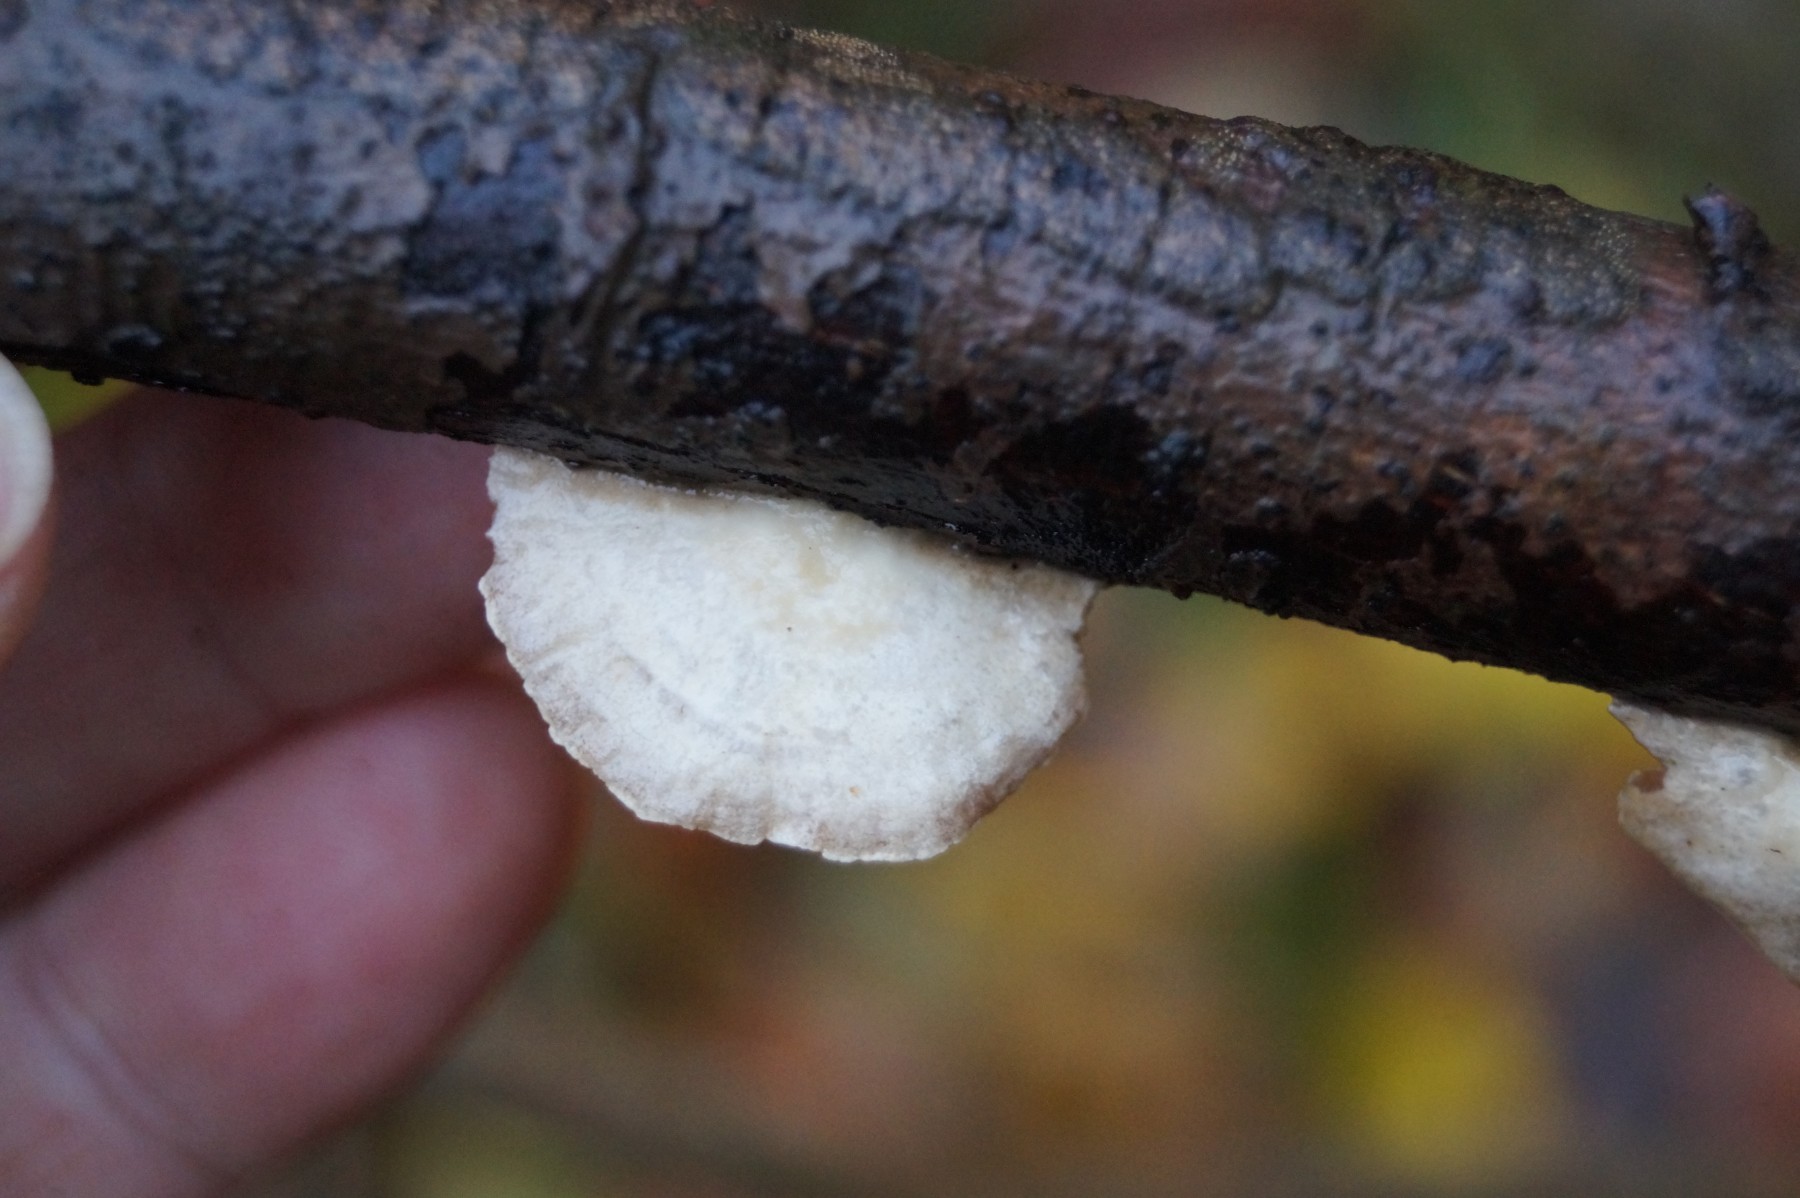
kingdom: Fungi
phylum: Basidiomycota
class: Agaricomycetes
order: Agaricales
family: Crepidotaceae
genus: Crepidotus
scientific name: Crepidotus
